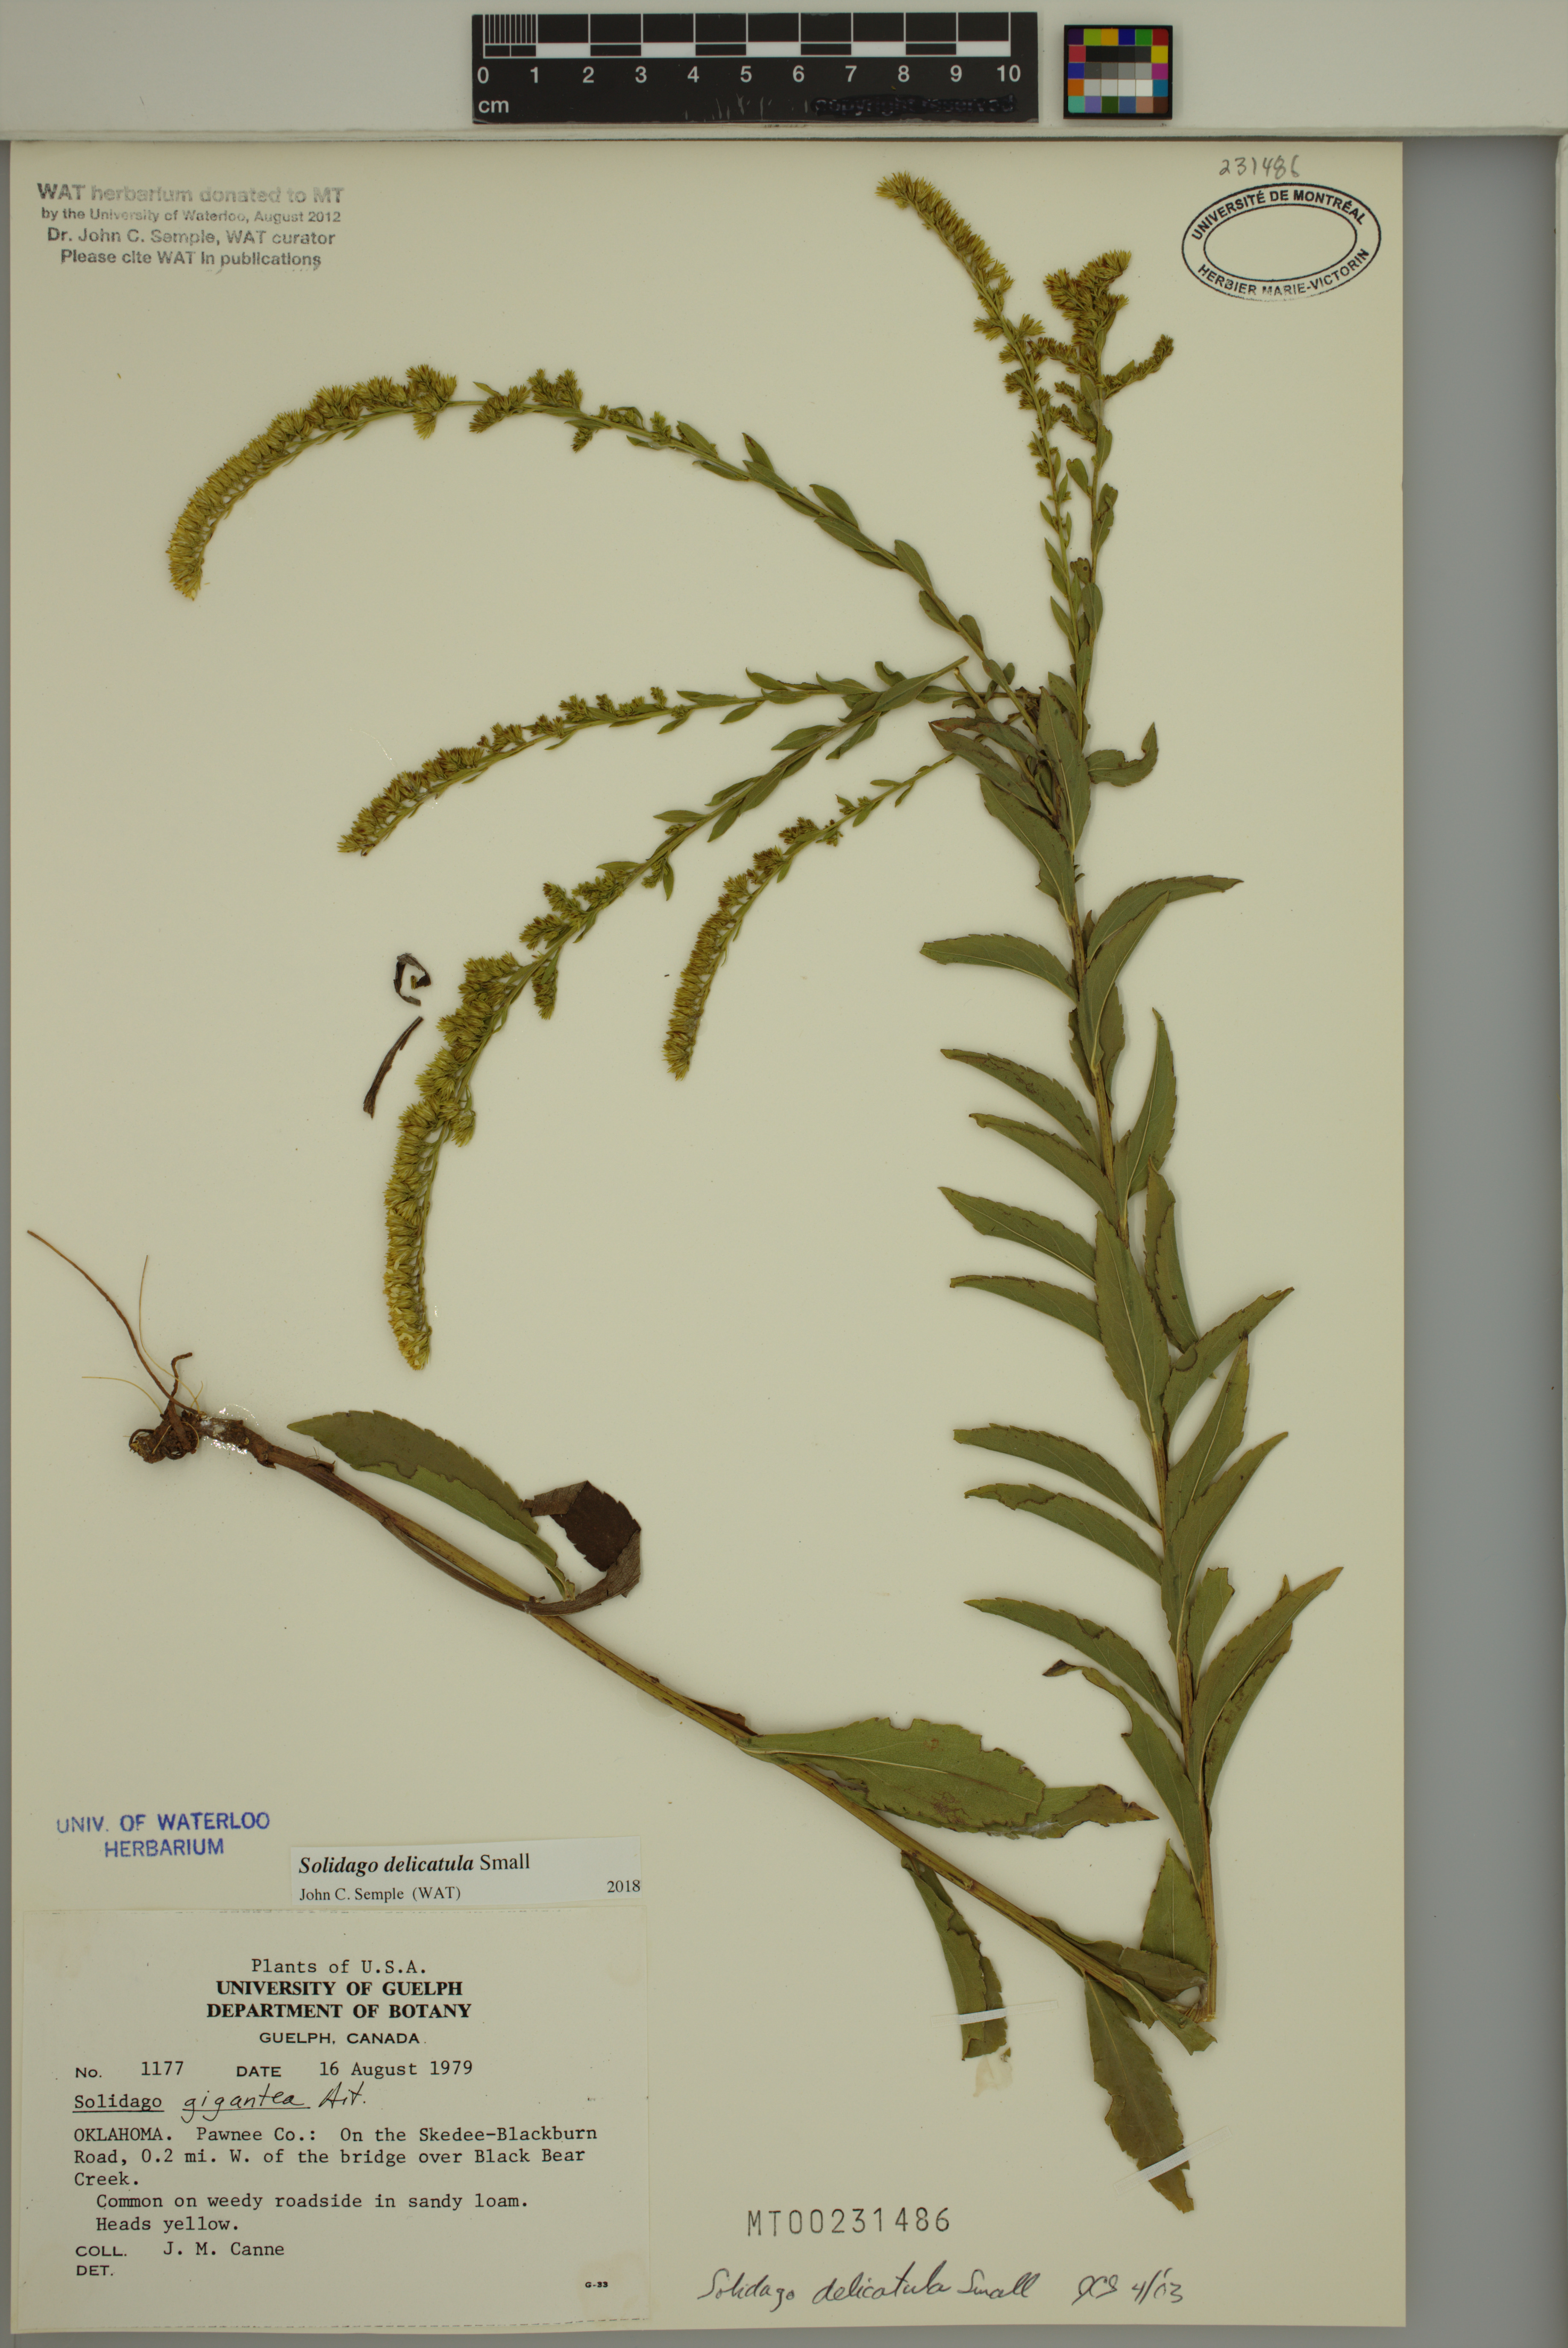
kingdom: Plantae
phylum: Tracheophyta
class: Magnoliopsida
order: Asterales
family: Asteraceae
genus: Solidago
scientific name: Solidago delicatula
